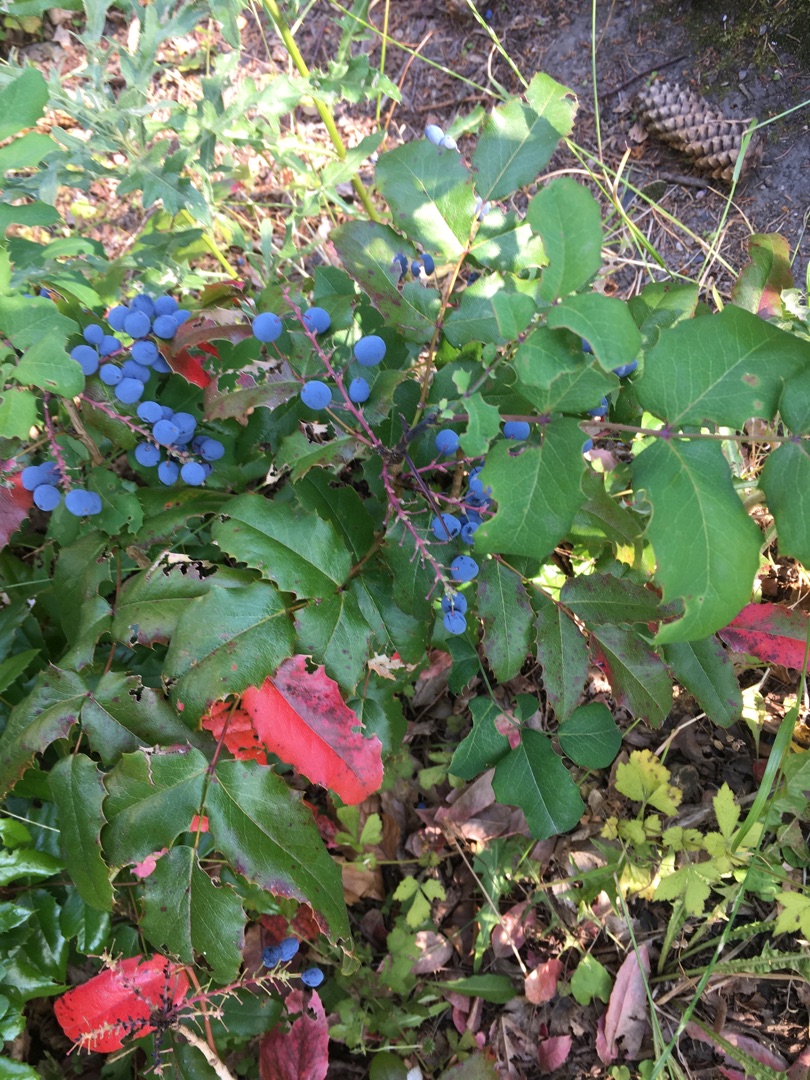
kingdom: Plantae
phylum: Tracheophyta
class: Magnoliopsida
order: Ranunculales
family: Berberidaceae
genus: Mahonia
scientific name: Mahonia aquifolium
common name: Almindelig mahonie
